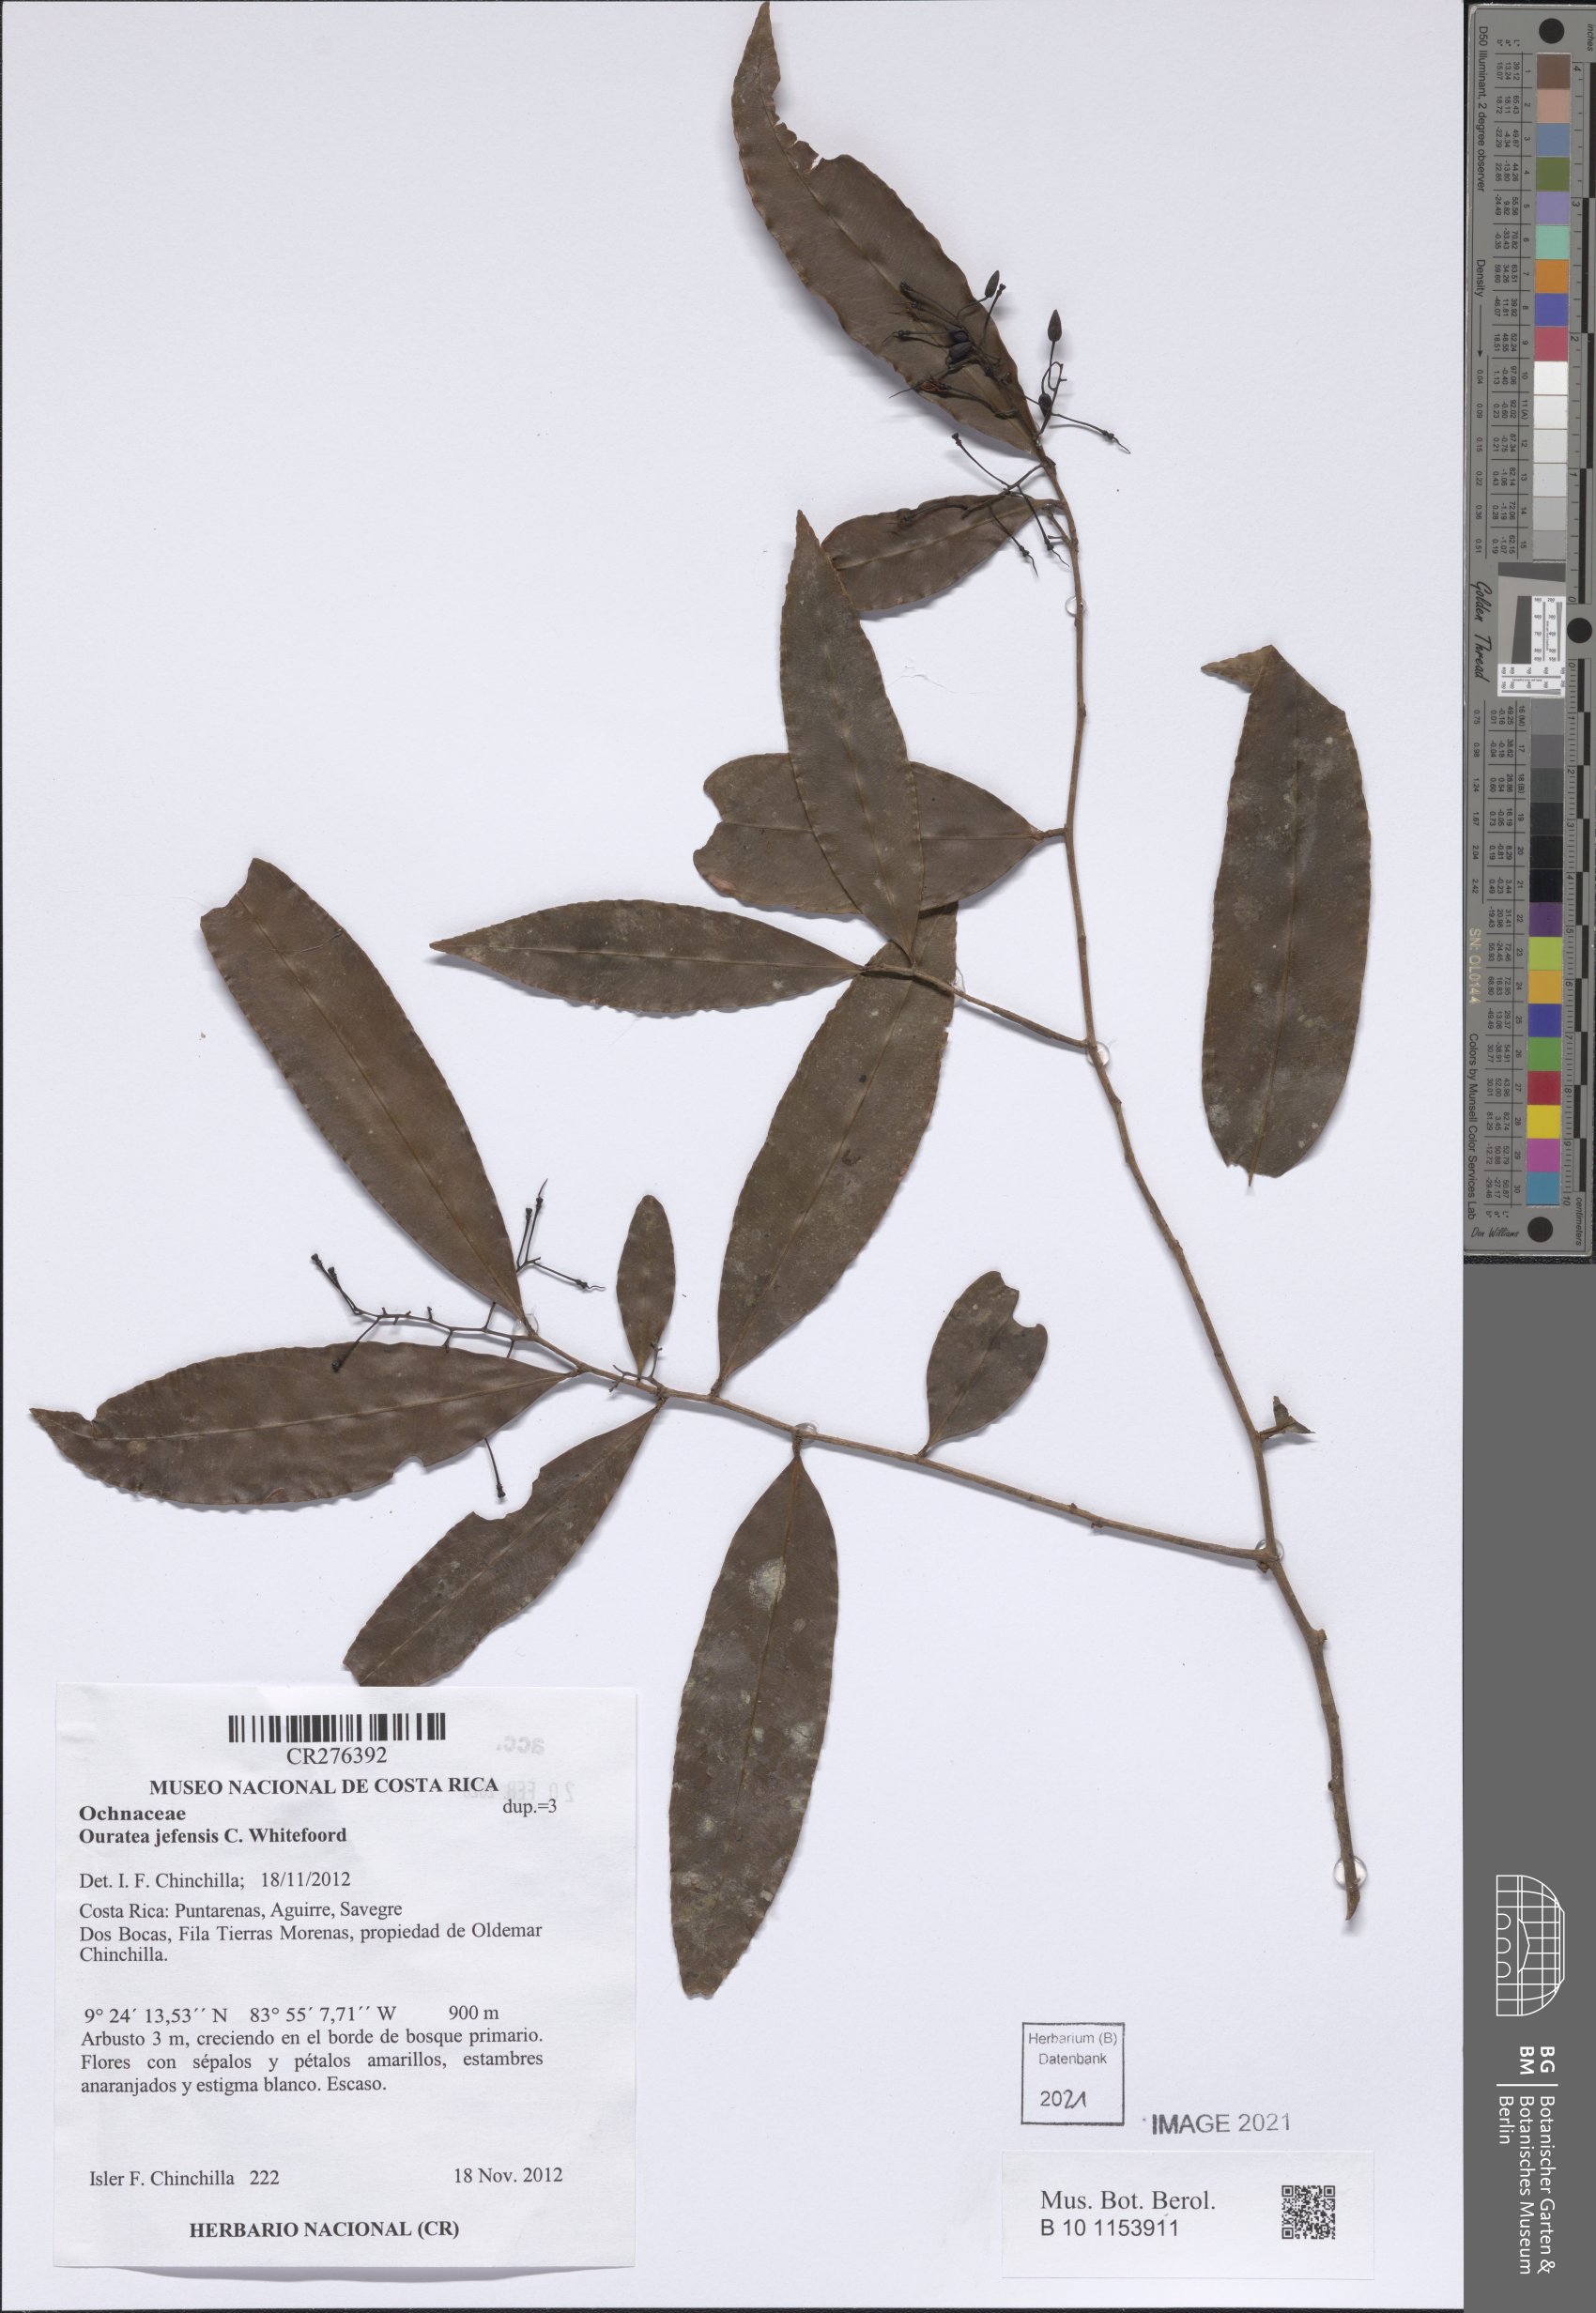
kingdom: Plantae
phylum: Tracheophyta
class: Magnoliopsida
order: Malpighiales
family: Ochnaceae
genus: Ouratea
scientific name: Ouratea
